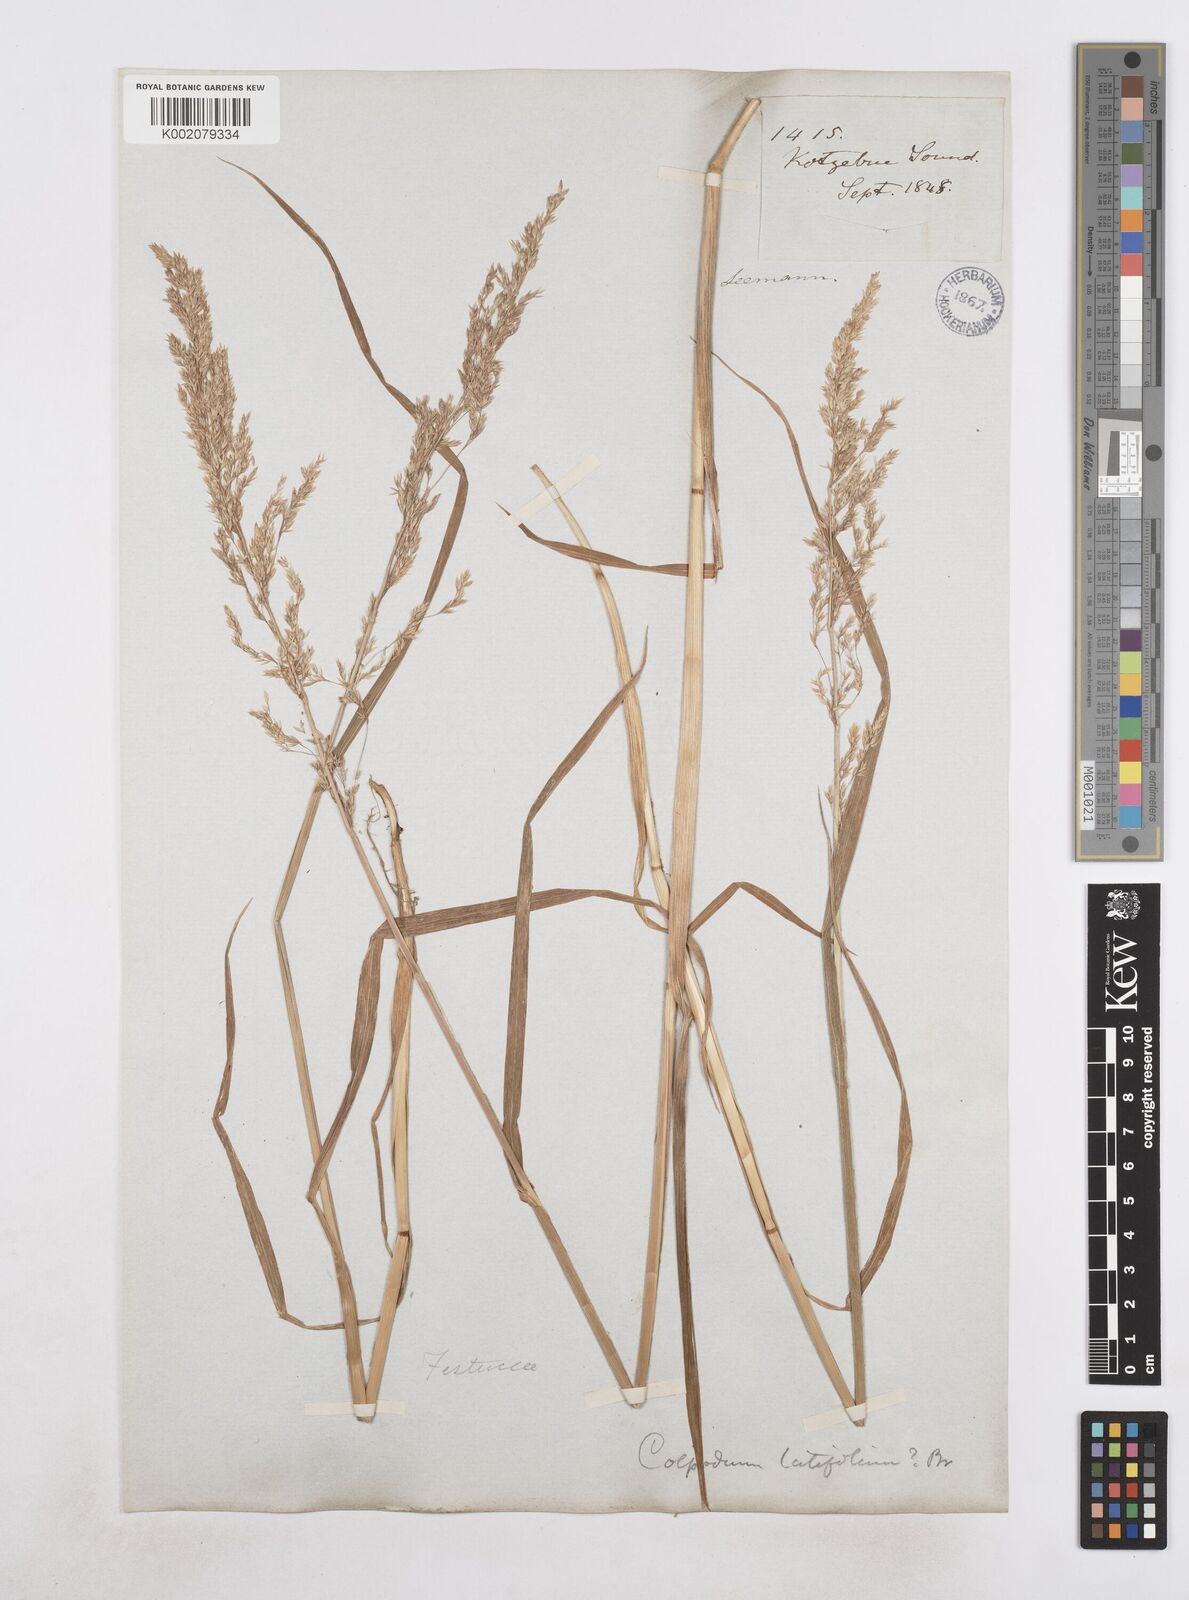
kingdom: Plantae
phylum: Tracheophyta
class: Liliopsida
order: Poales
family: Poaceae
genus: Arctagrostis
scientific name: Arctagrostis arundinacea
